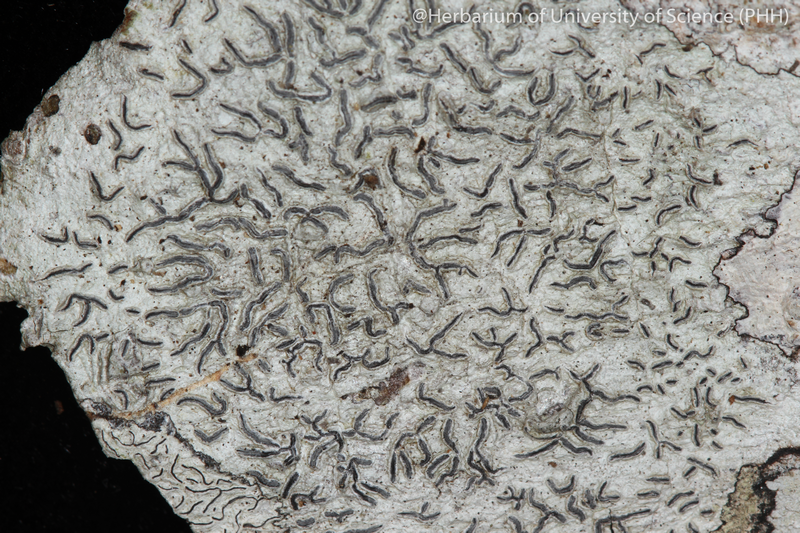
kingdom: Fungi
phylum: Ascomycota
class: Lecanoromycetes
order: Ostropales
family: Graphidaceae
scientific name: Graphidaceae
